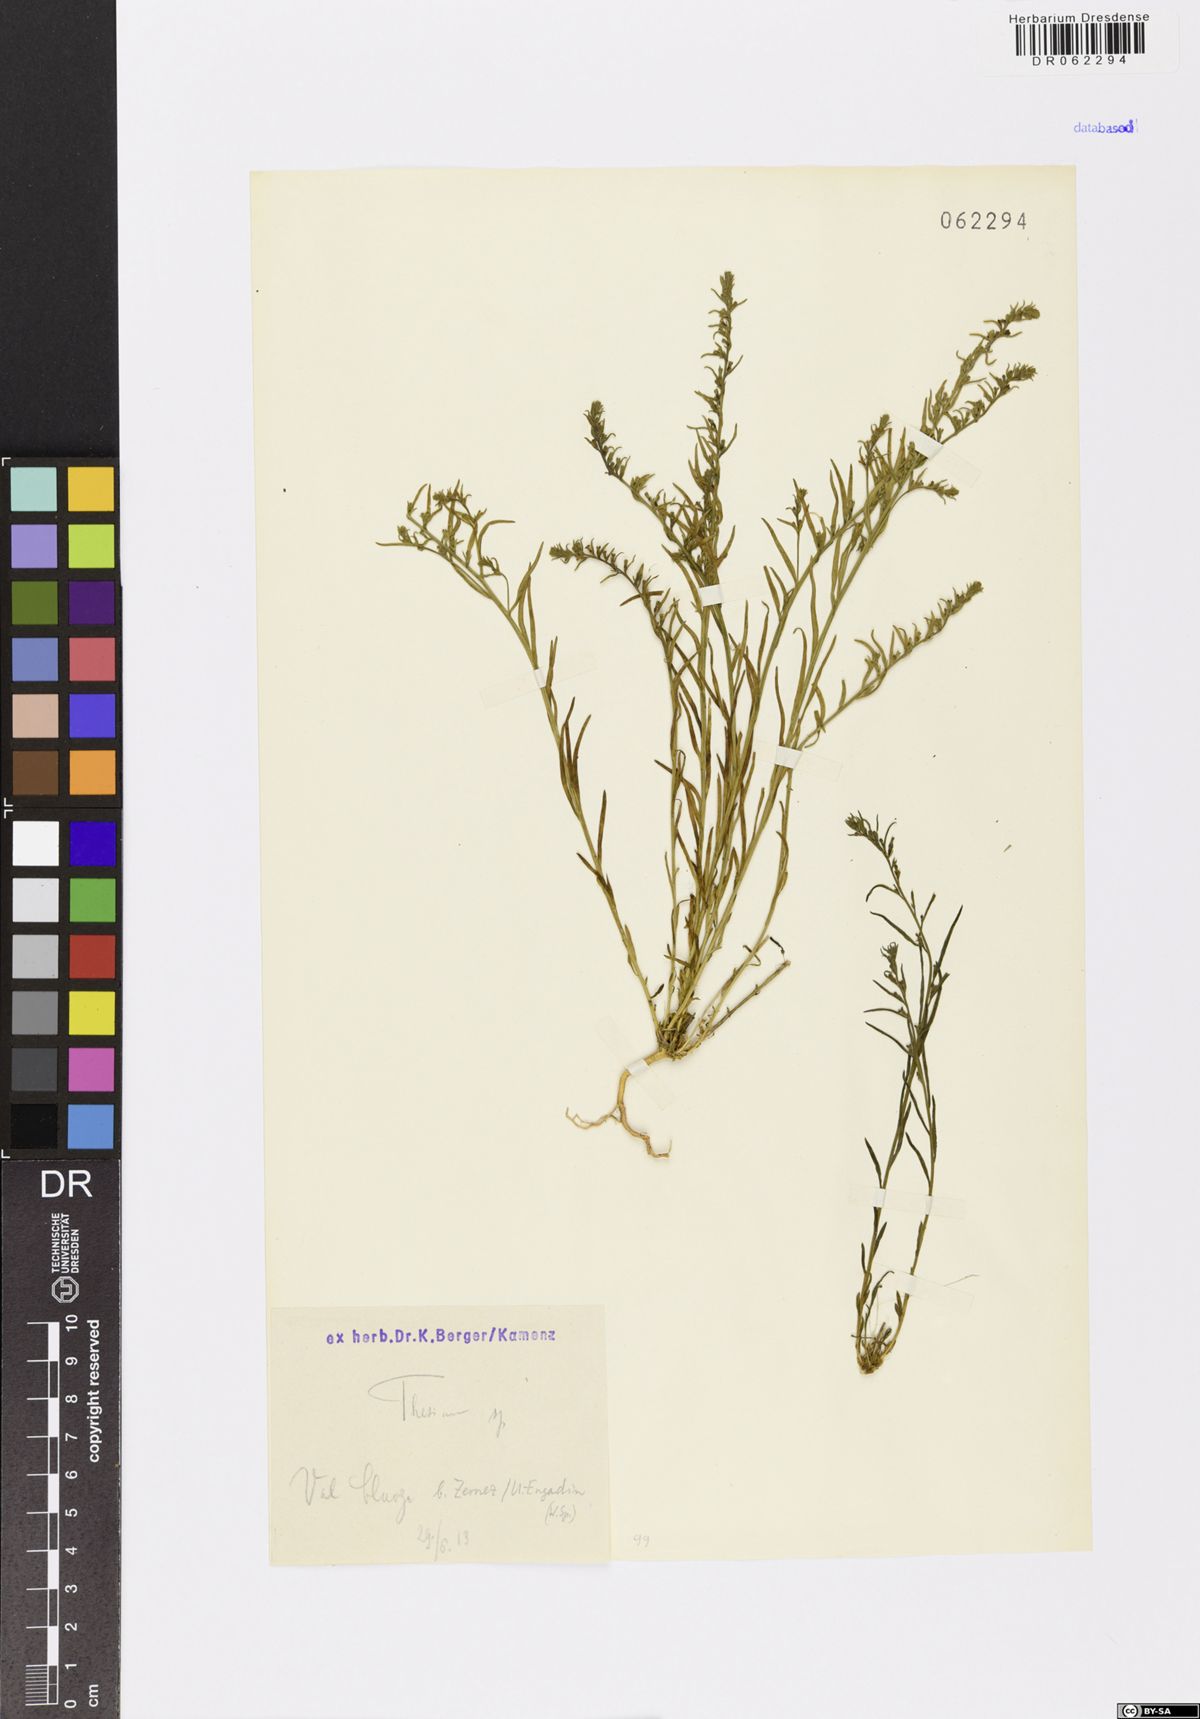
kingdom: Plantae
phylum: Tracheophyta
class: Magnoliopsida
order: Santalales
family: Thesiaceae
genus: Thesium
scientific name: Thesium
